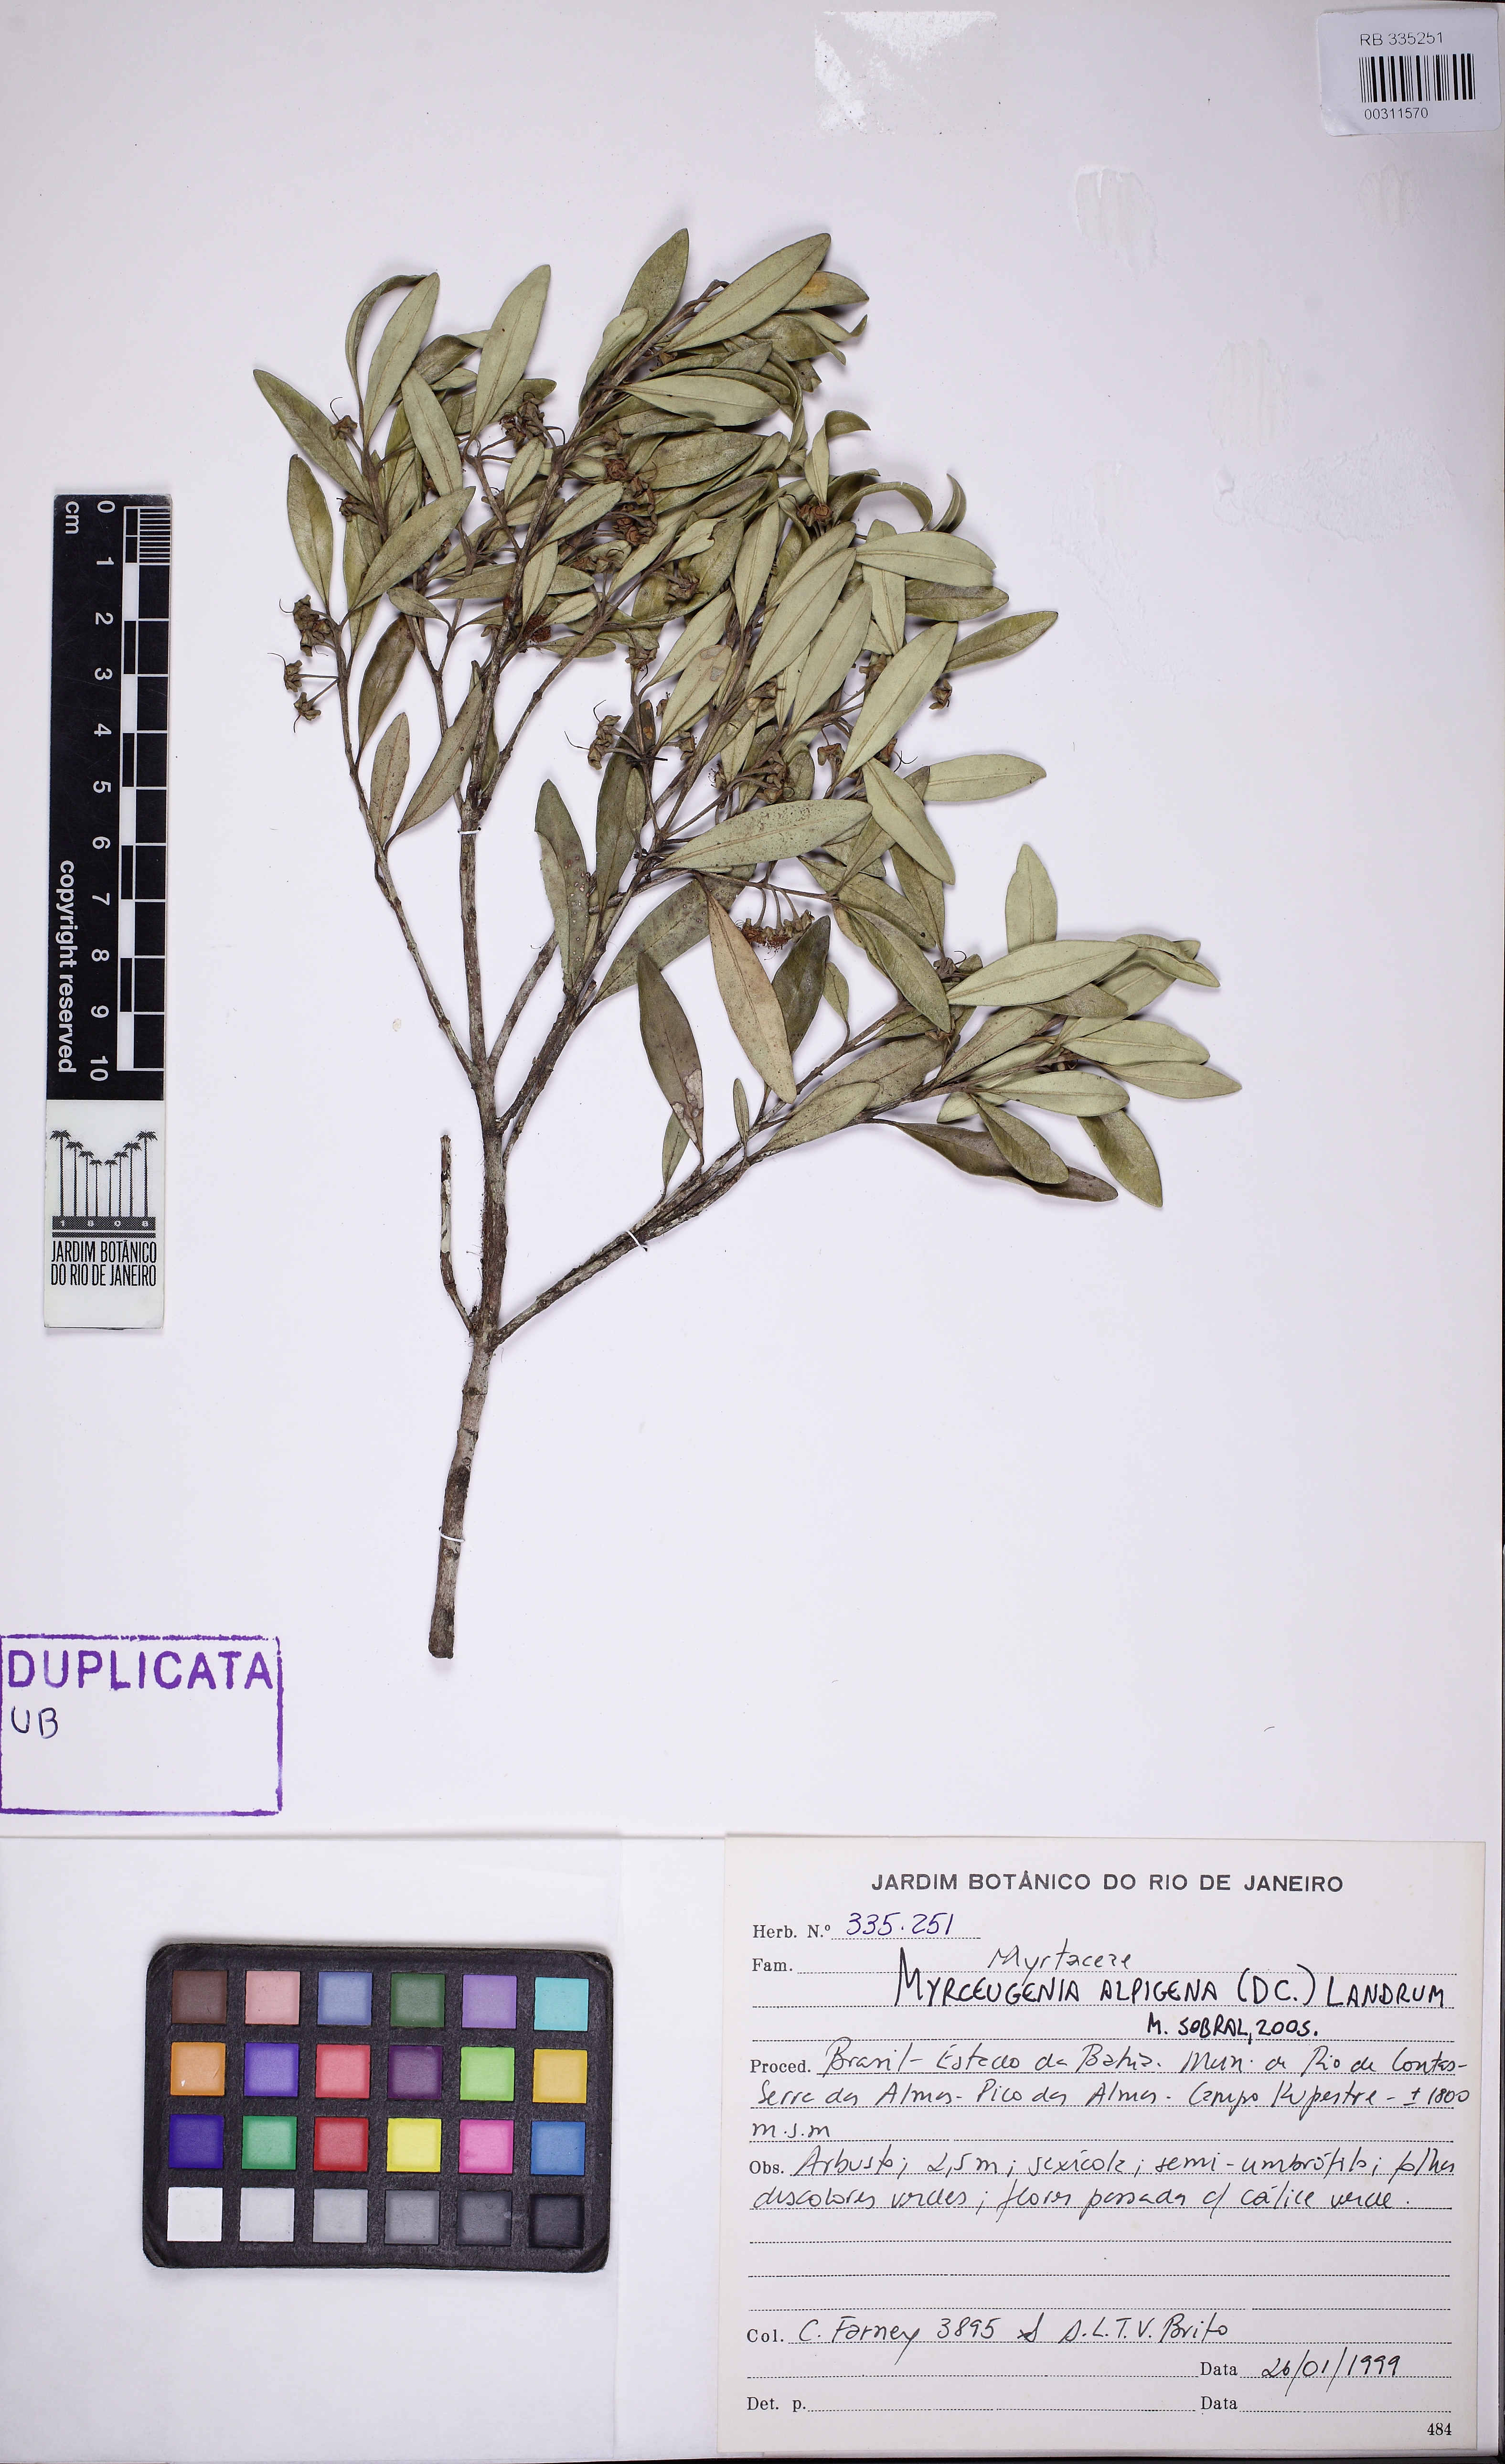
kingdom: Plantae
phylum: Tracheophyta
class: Magnoliopsida
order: Myrtales
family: Myrtaceae
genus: Myrceugenia
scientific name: Myrceugenia alpigena
